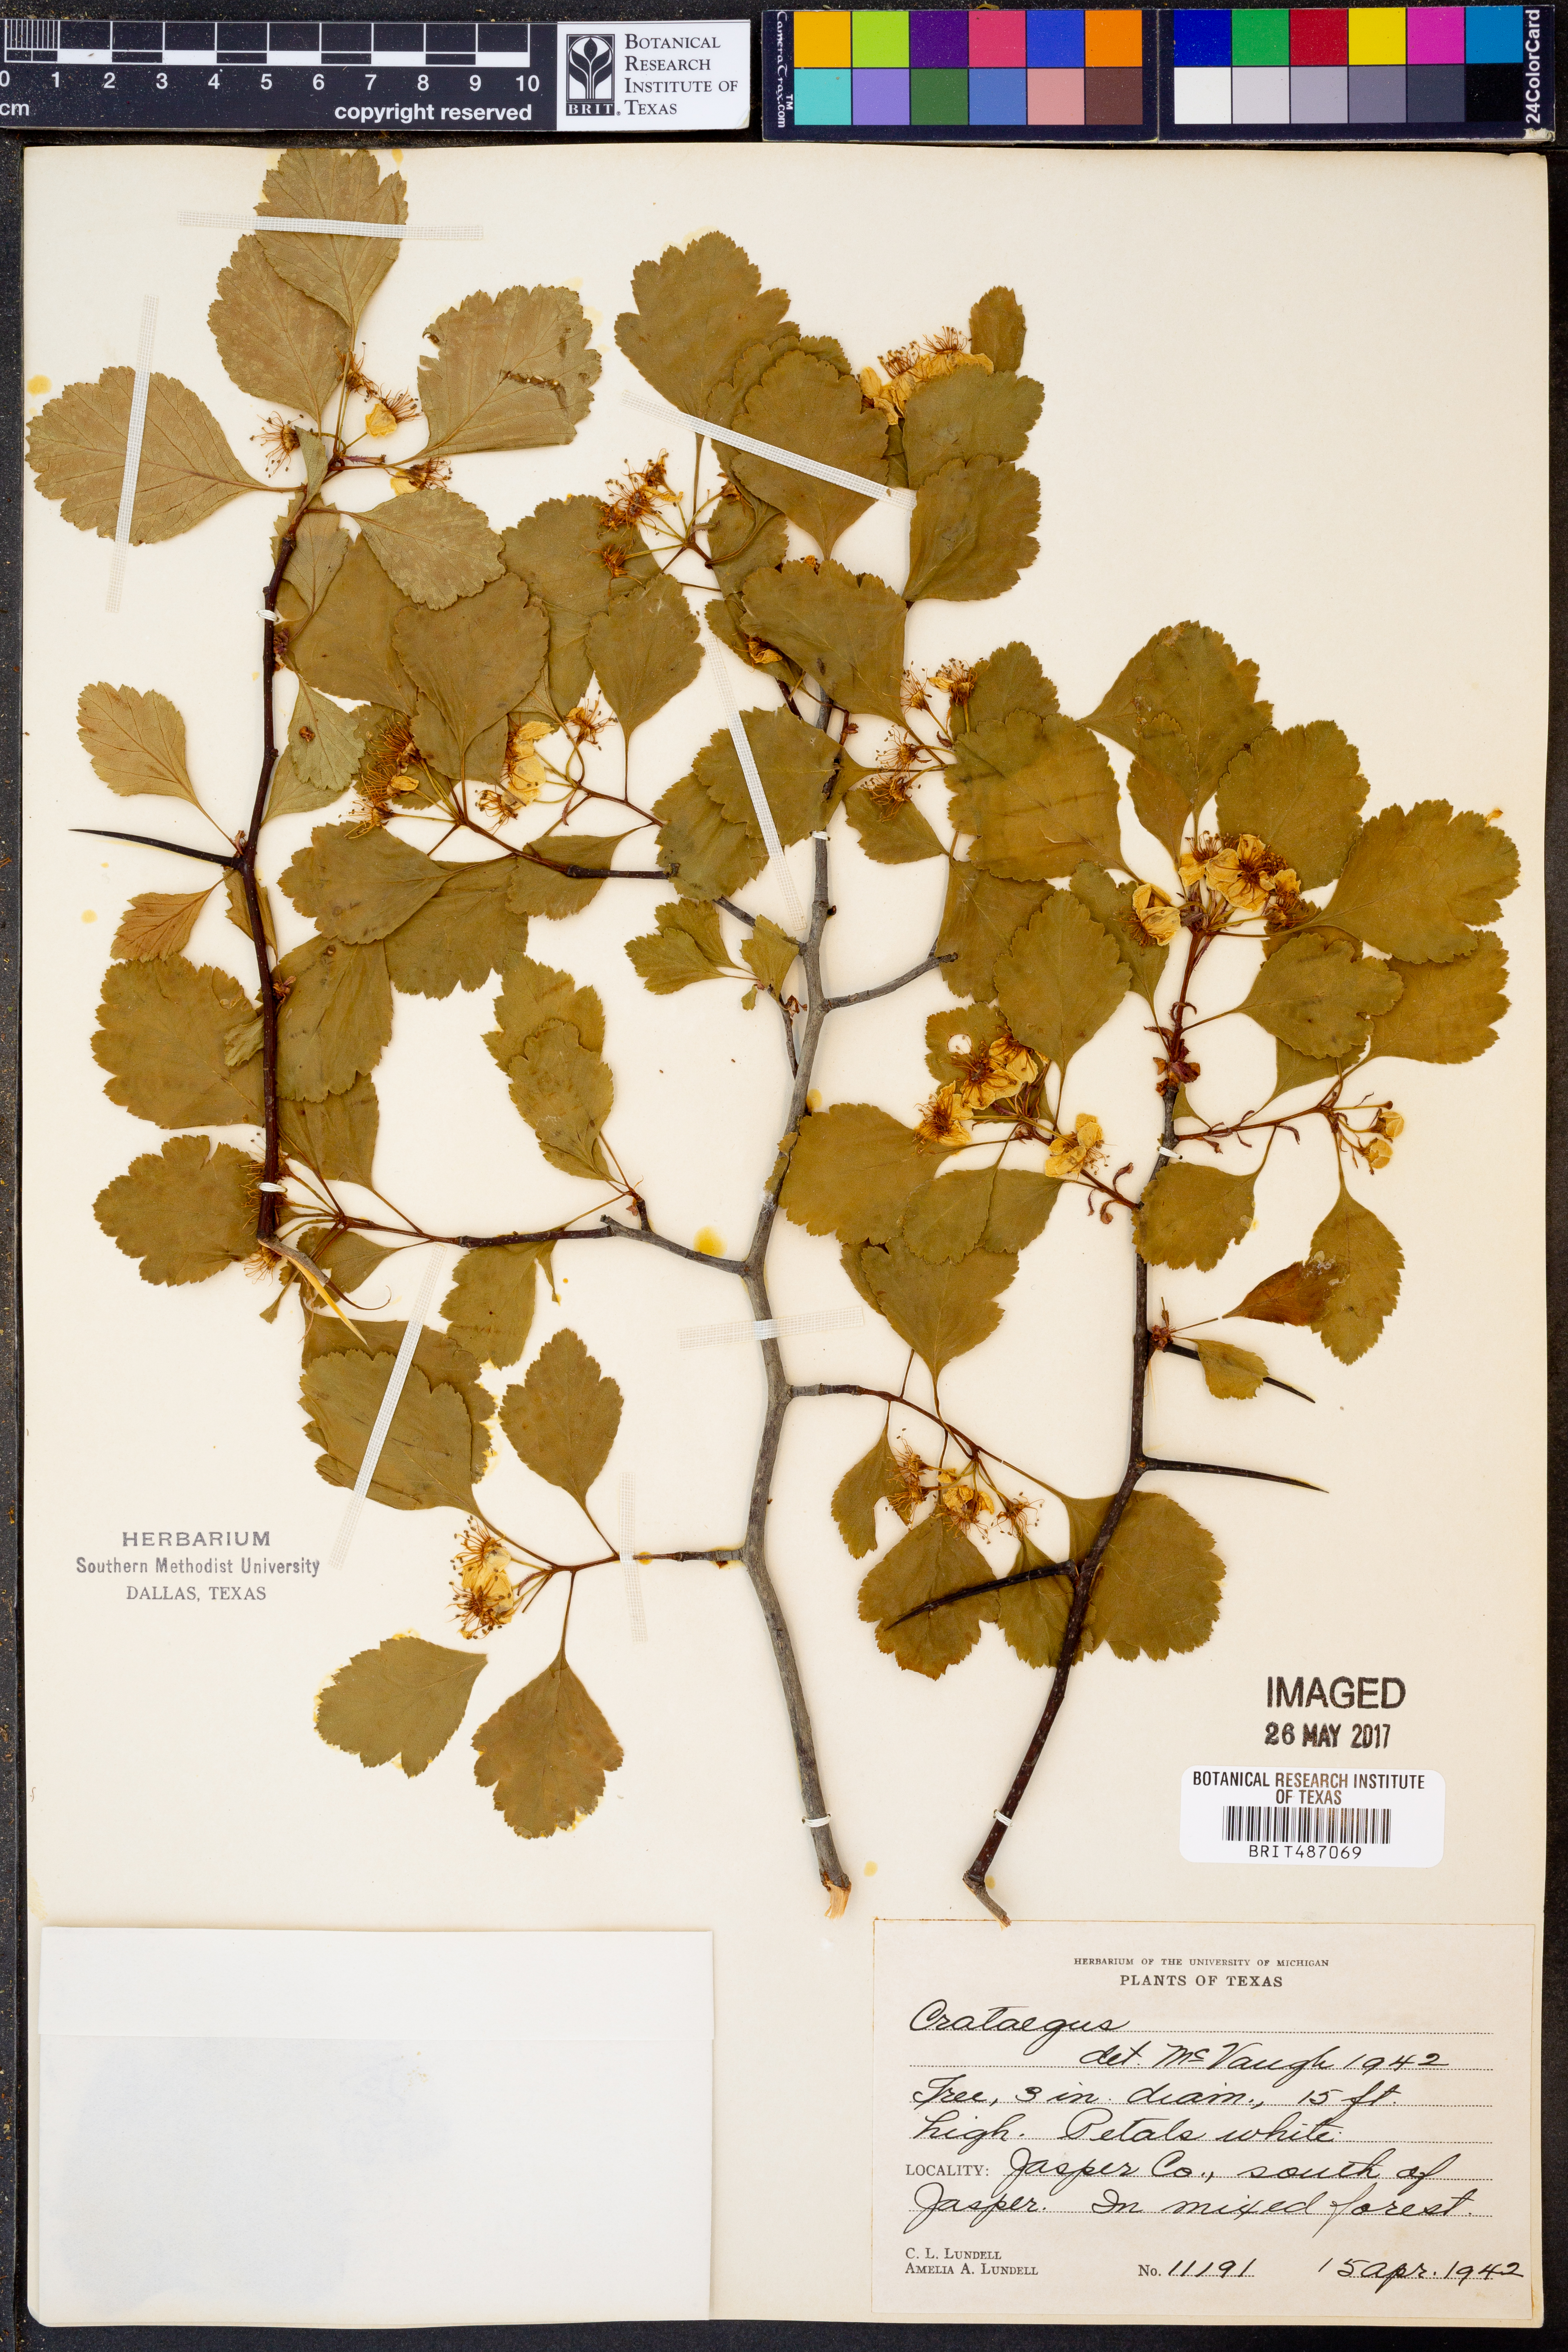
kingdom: Plantae
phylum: Tracheophyta
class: Magnoliopsida
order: Rosales
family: Rosaceae
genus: Crataegus
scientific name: Crataegus
